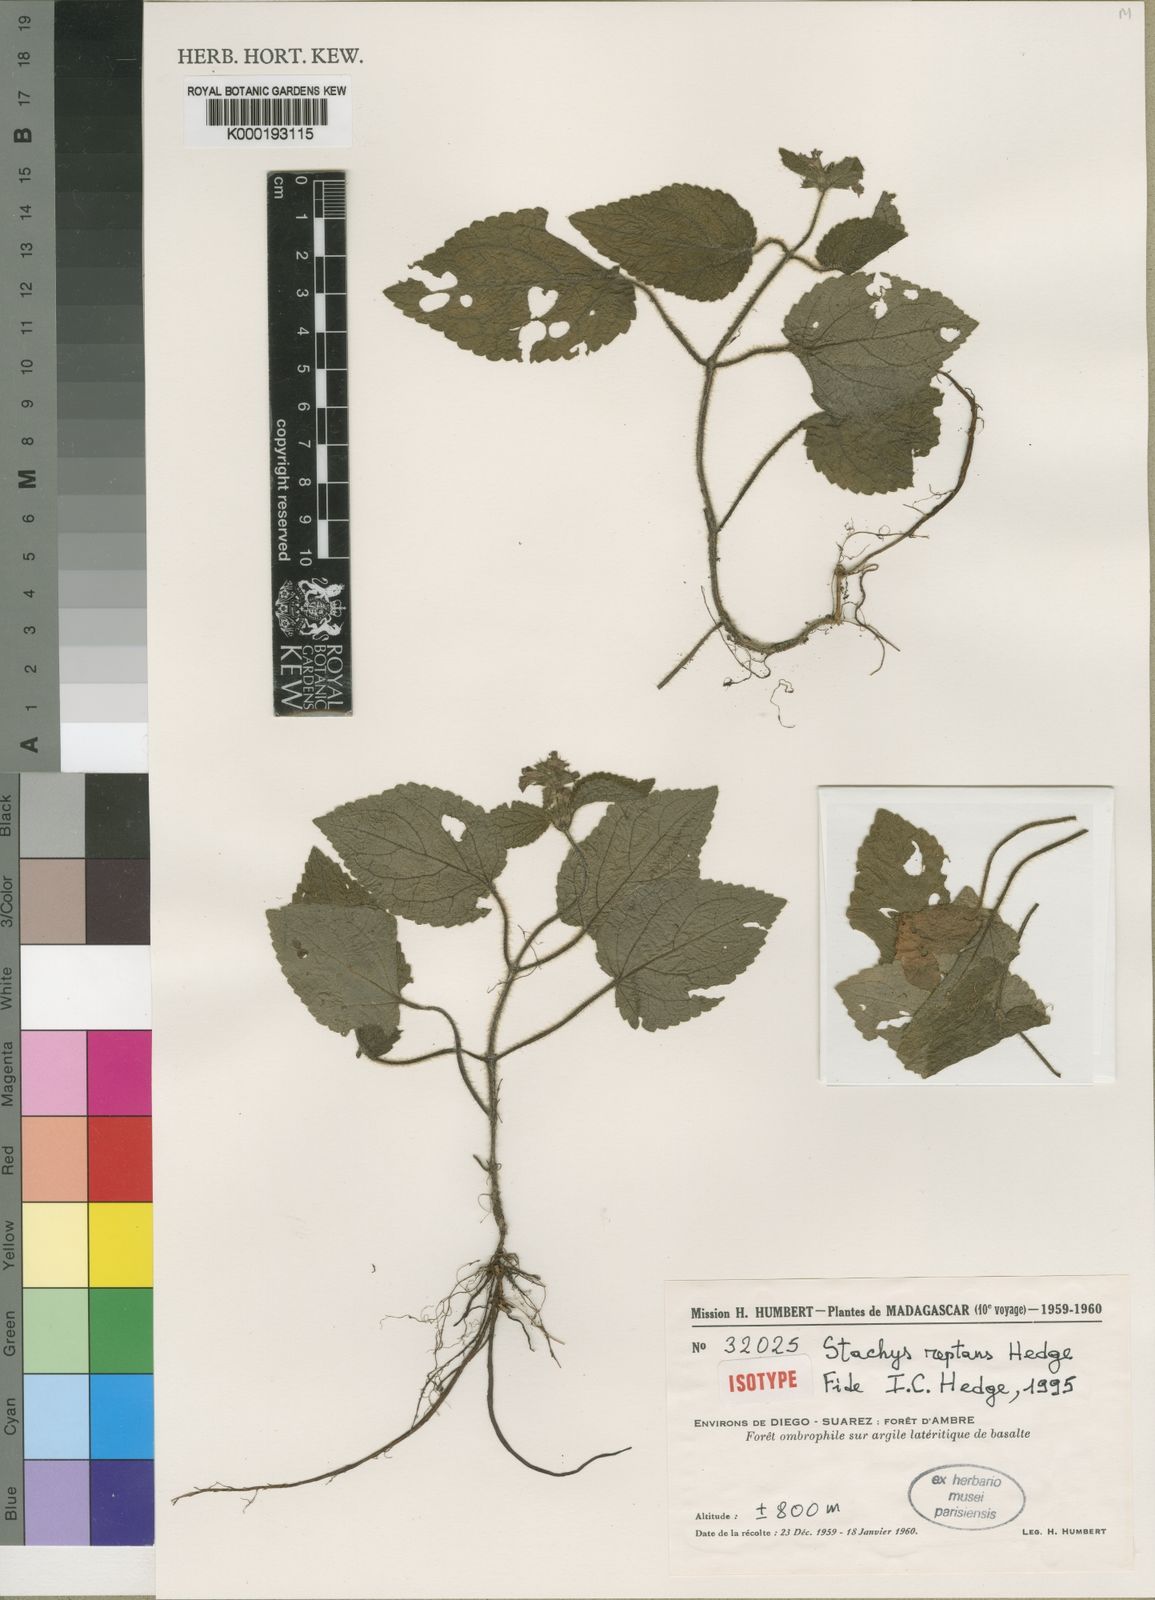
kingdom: Plantae
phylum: Tracheophyta
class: Magnoliopsida
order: Lamiales
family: Lamiaceae
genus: Stachys
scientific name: Stachys reptans
